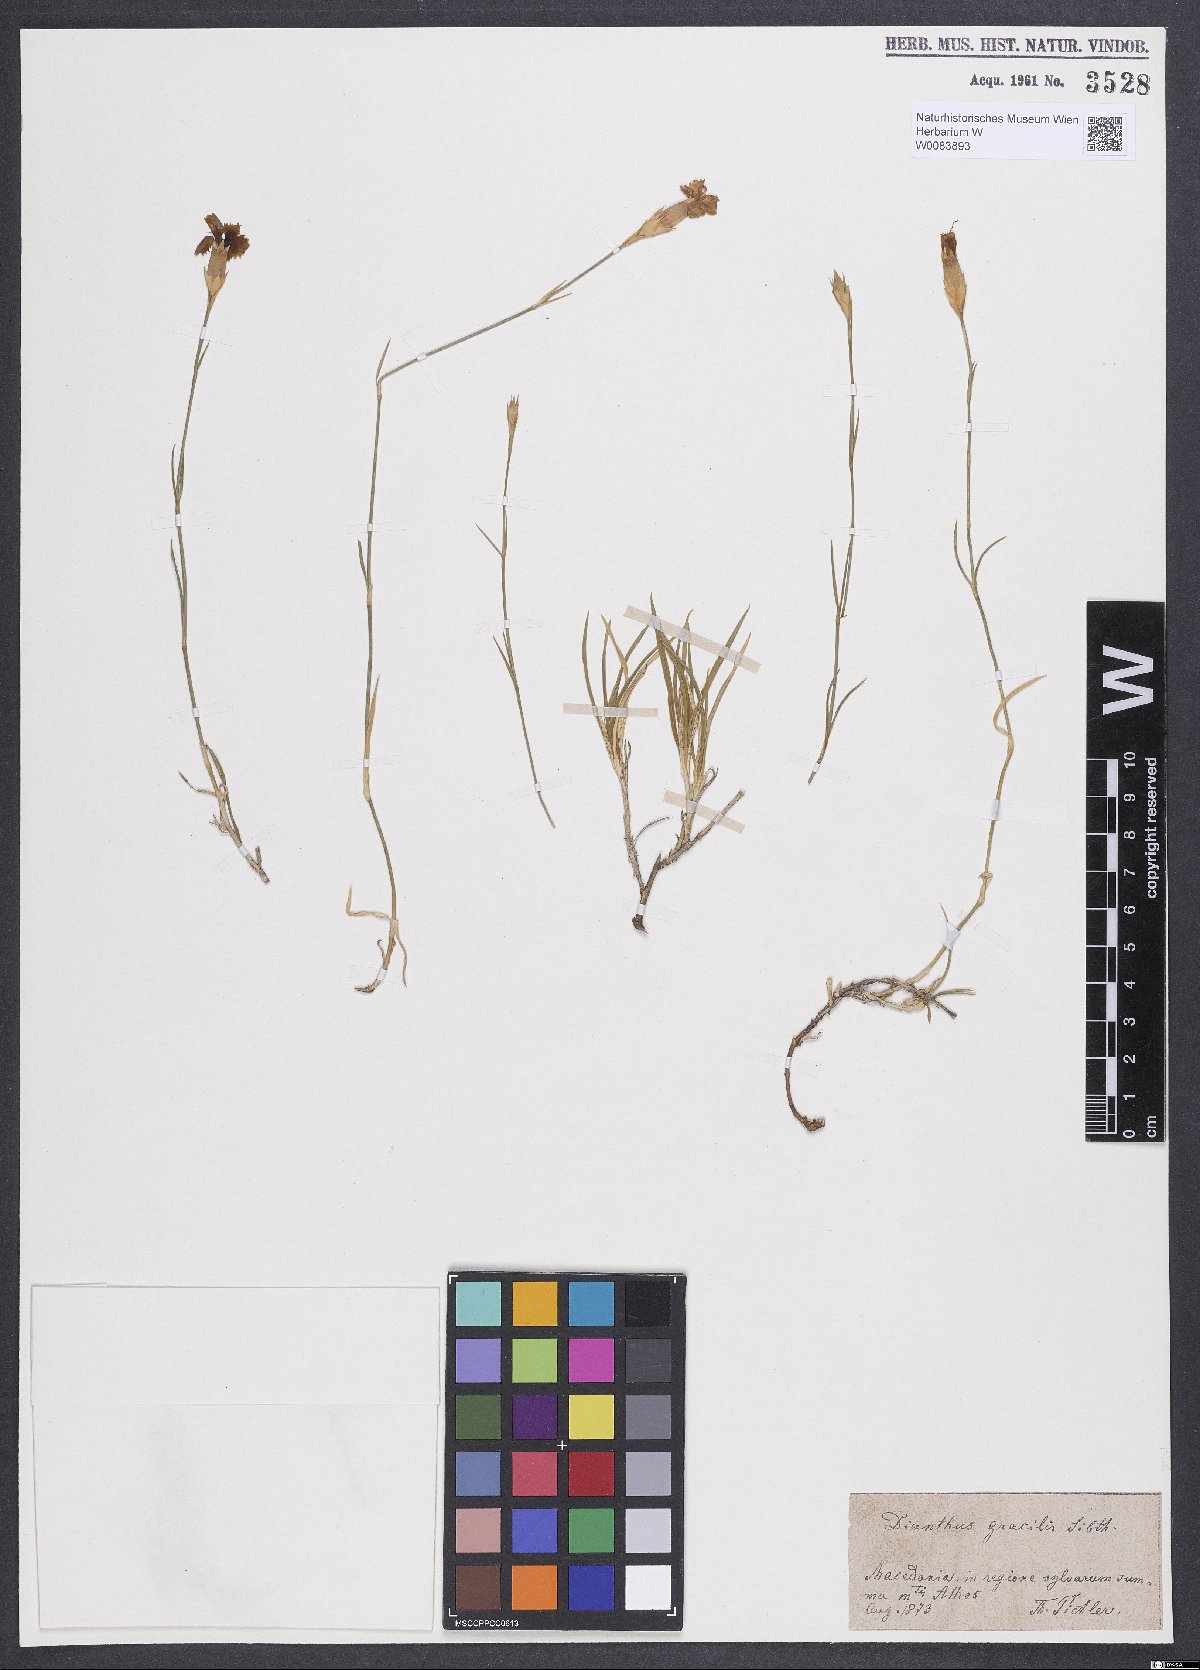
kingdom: Plantae
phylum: Tracheophyta
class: Magnoliopsida
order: Caryophyllales
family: Caryophyllaceae
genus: Dianthus
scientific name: Dianthus gracilis
